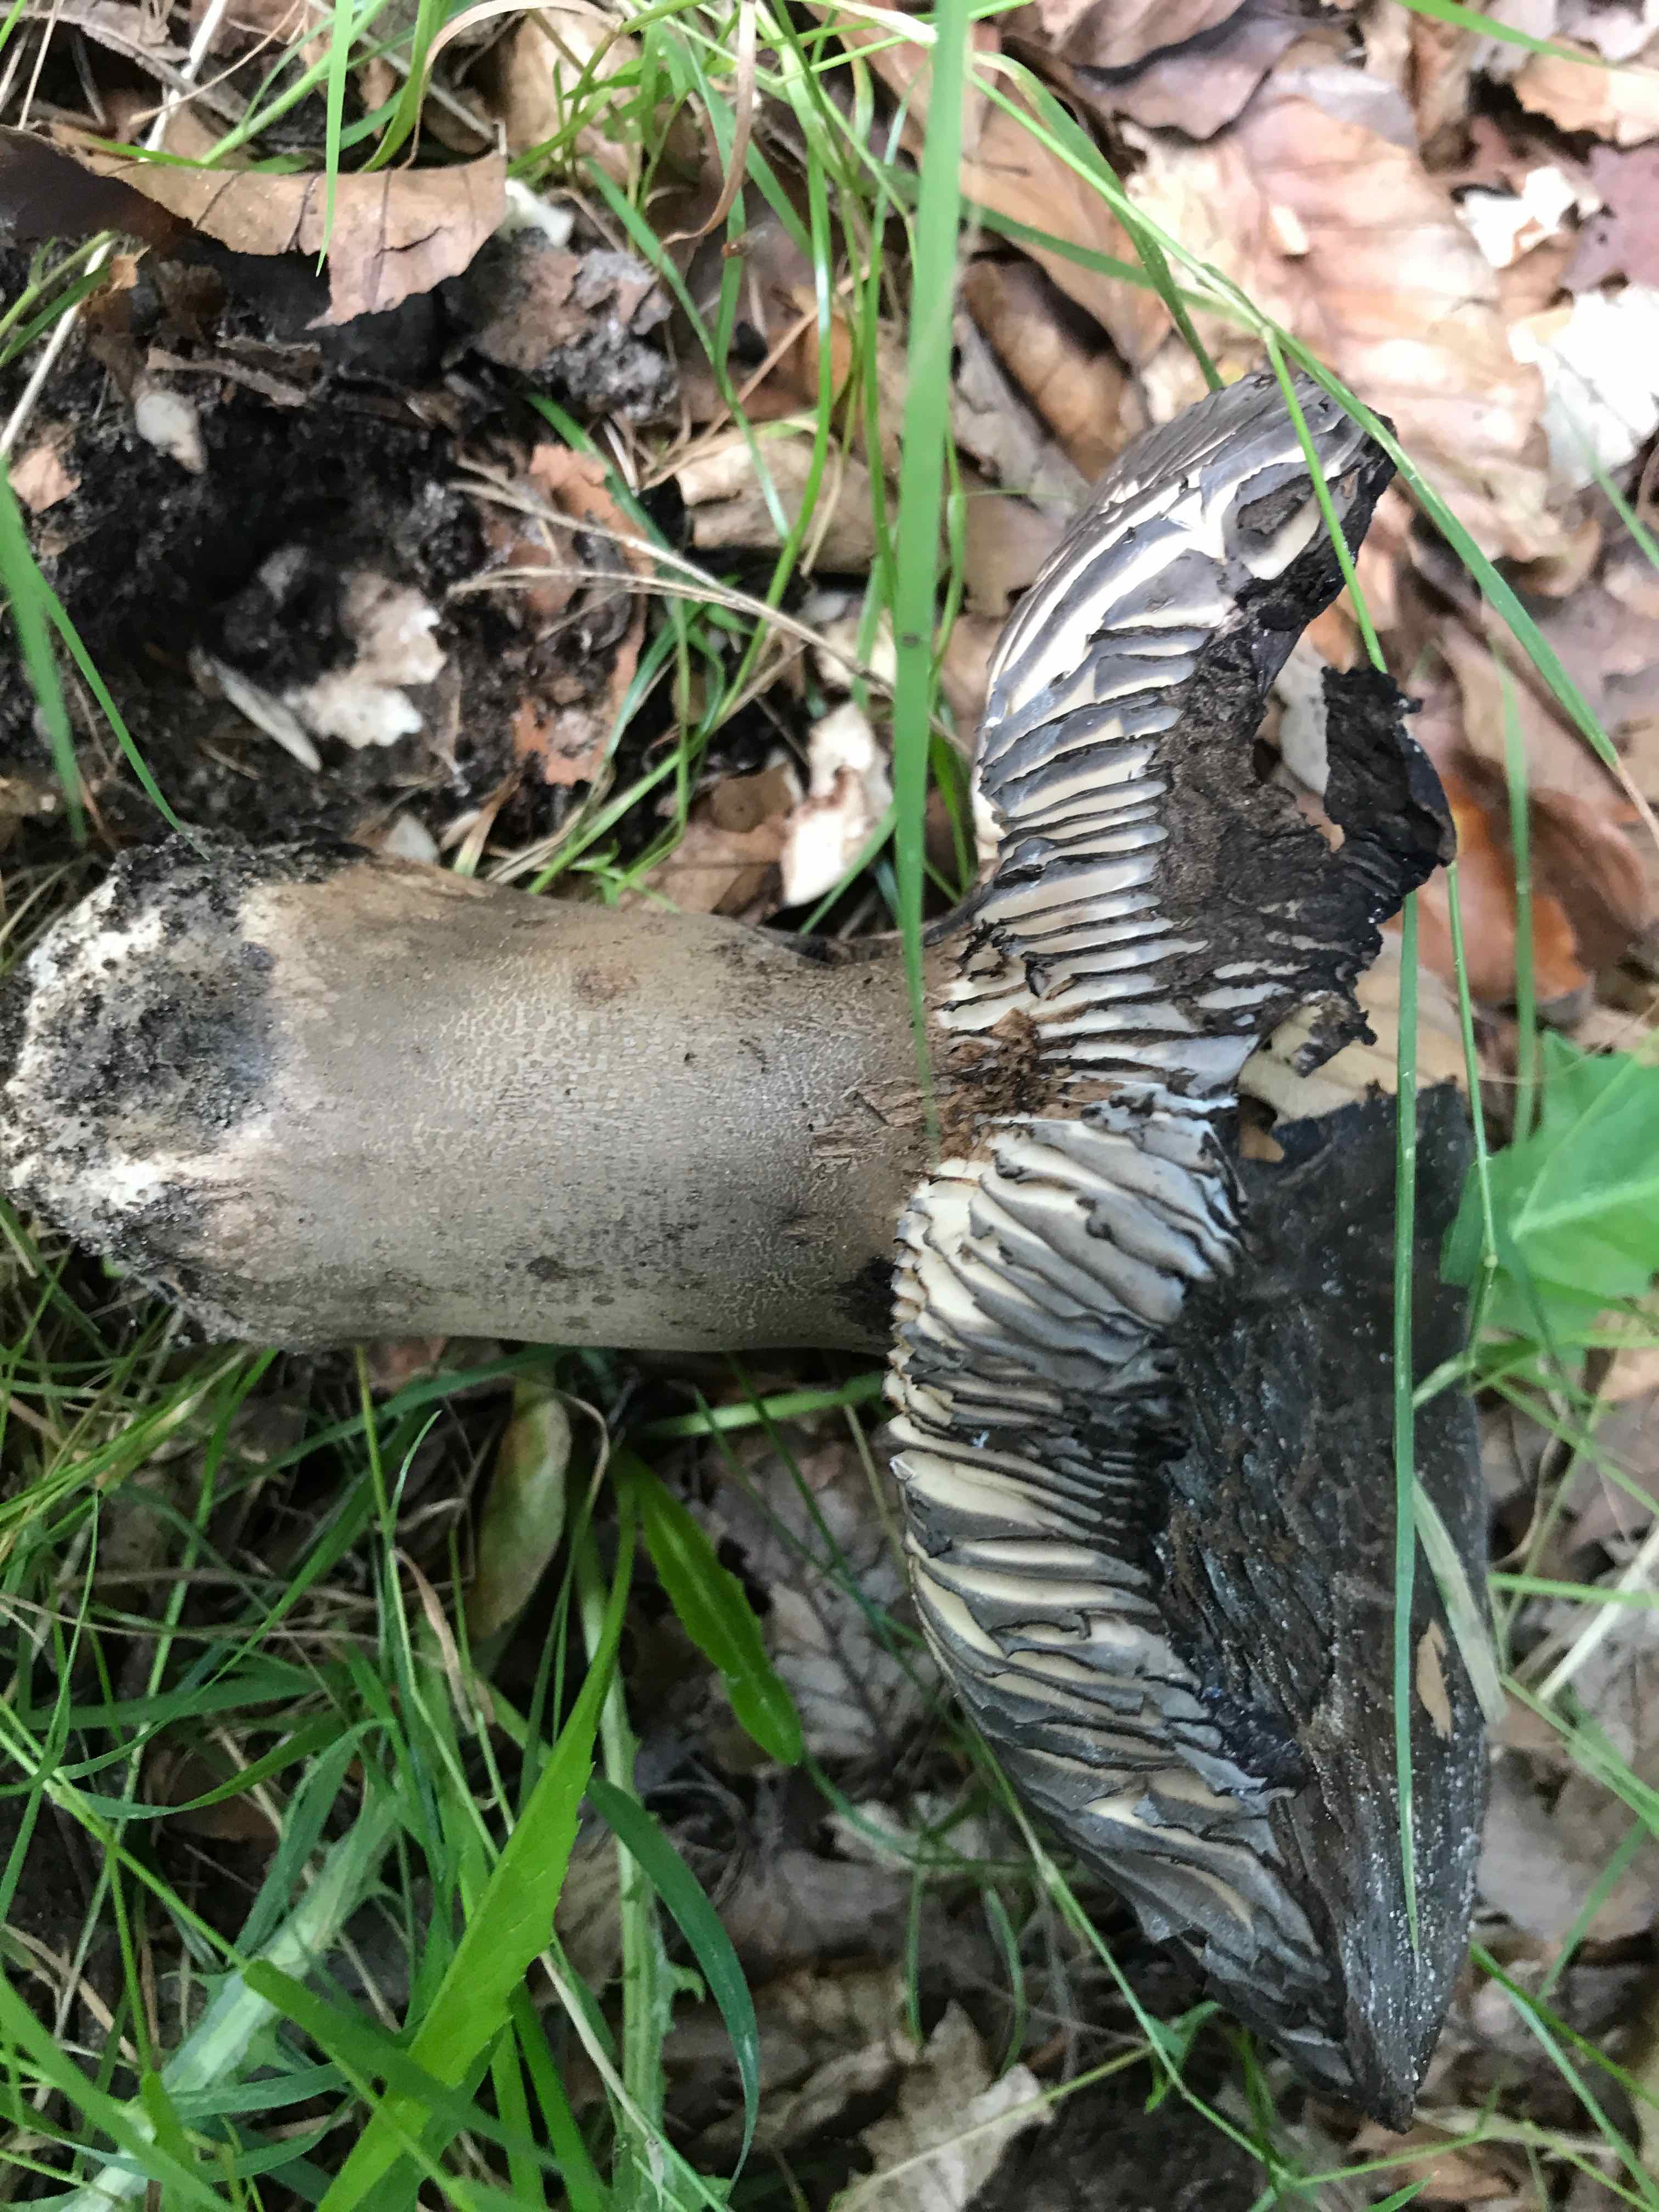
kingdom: Fungi
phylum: Basidiomycota
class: Agaricomycetes
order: Russulales
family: Russulaceae
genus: Russula
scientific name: Russula adusta
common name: sværtende skørhat
